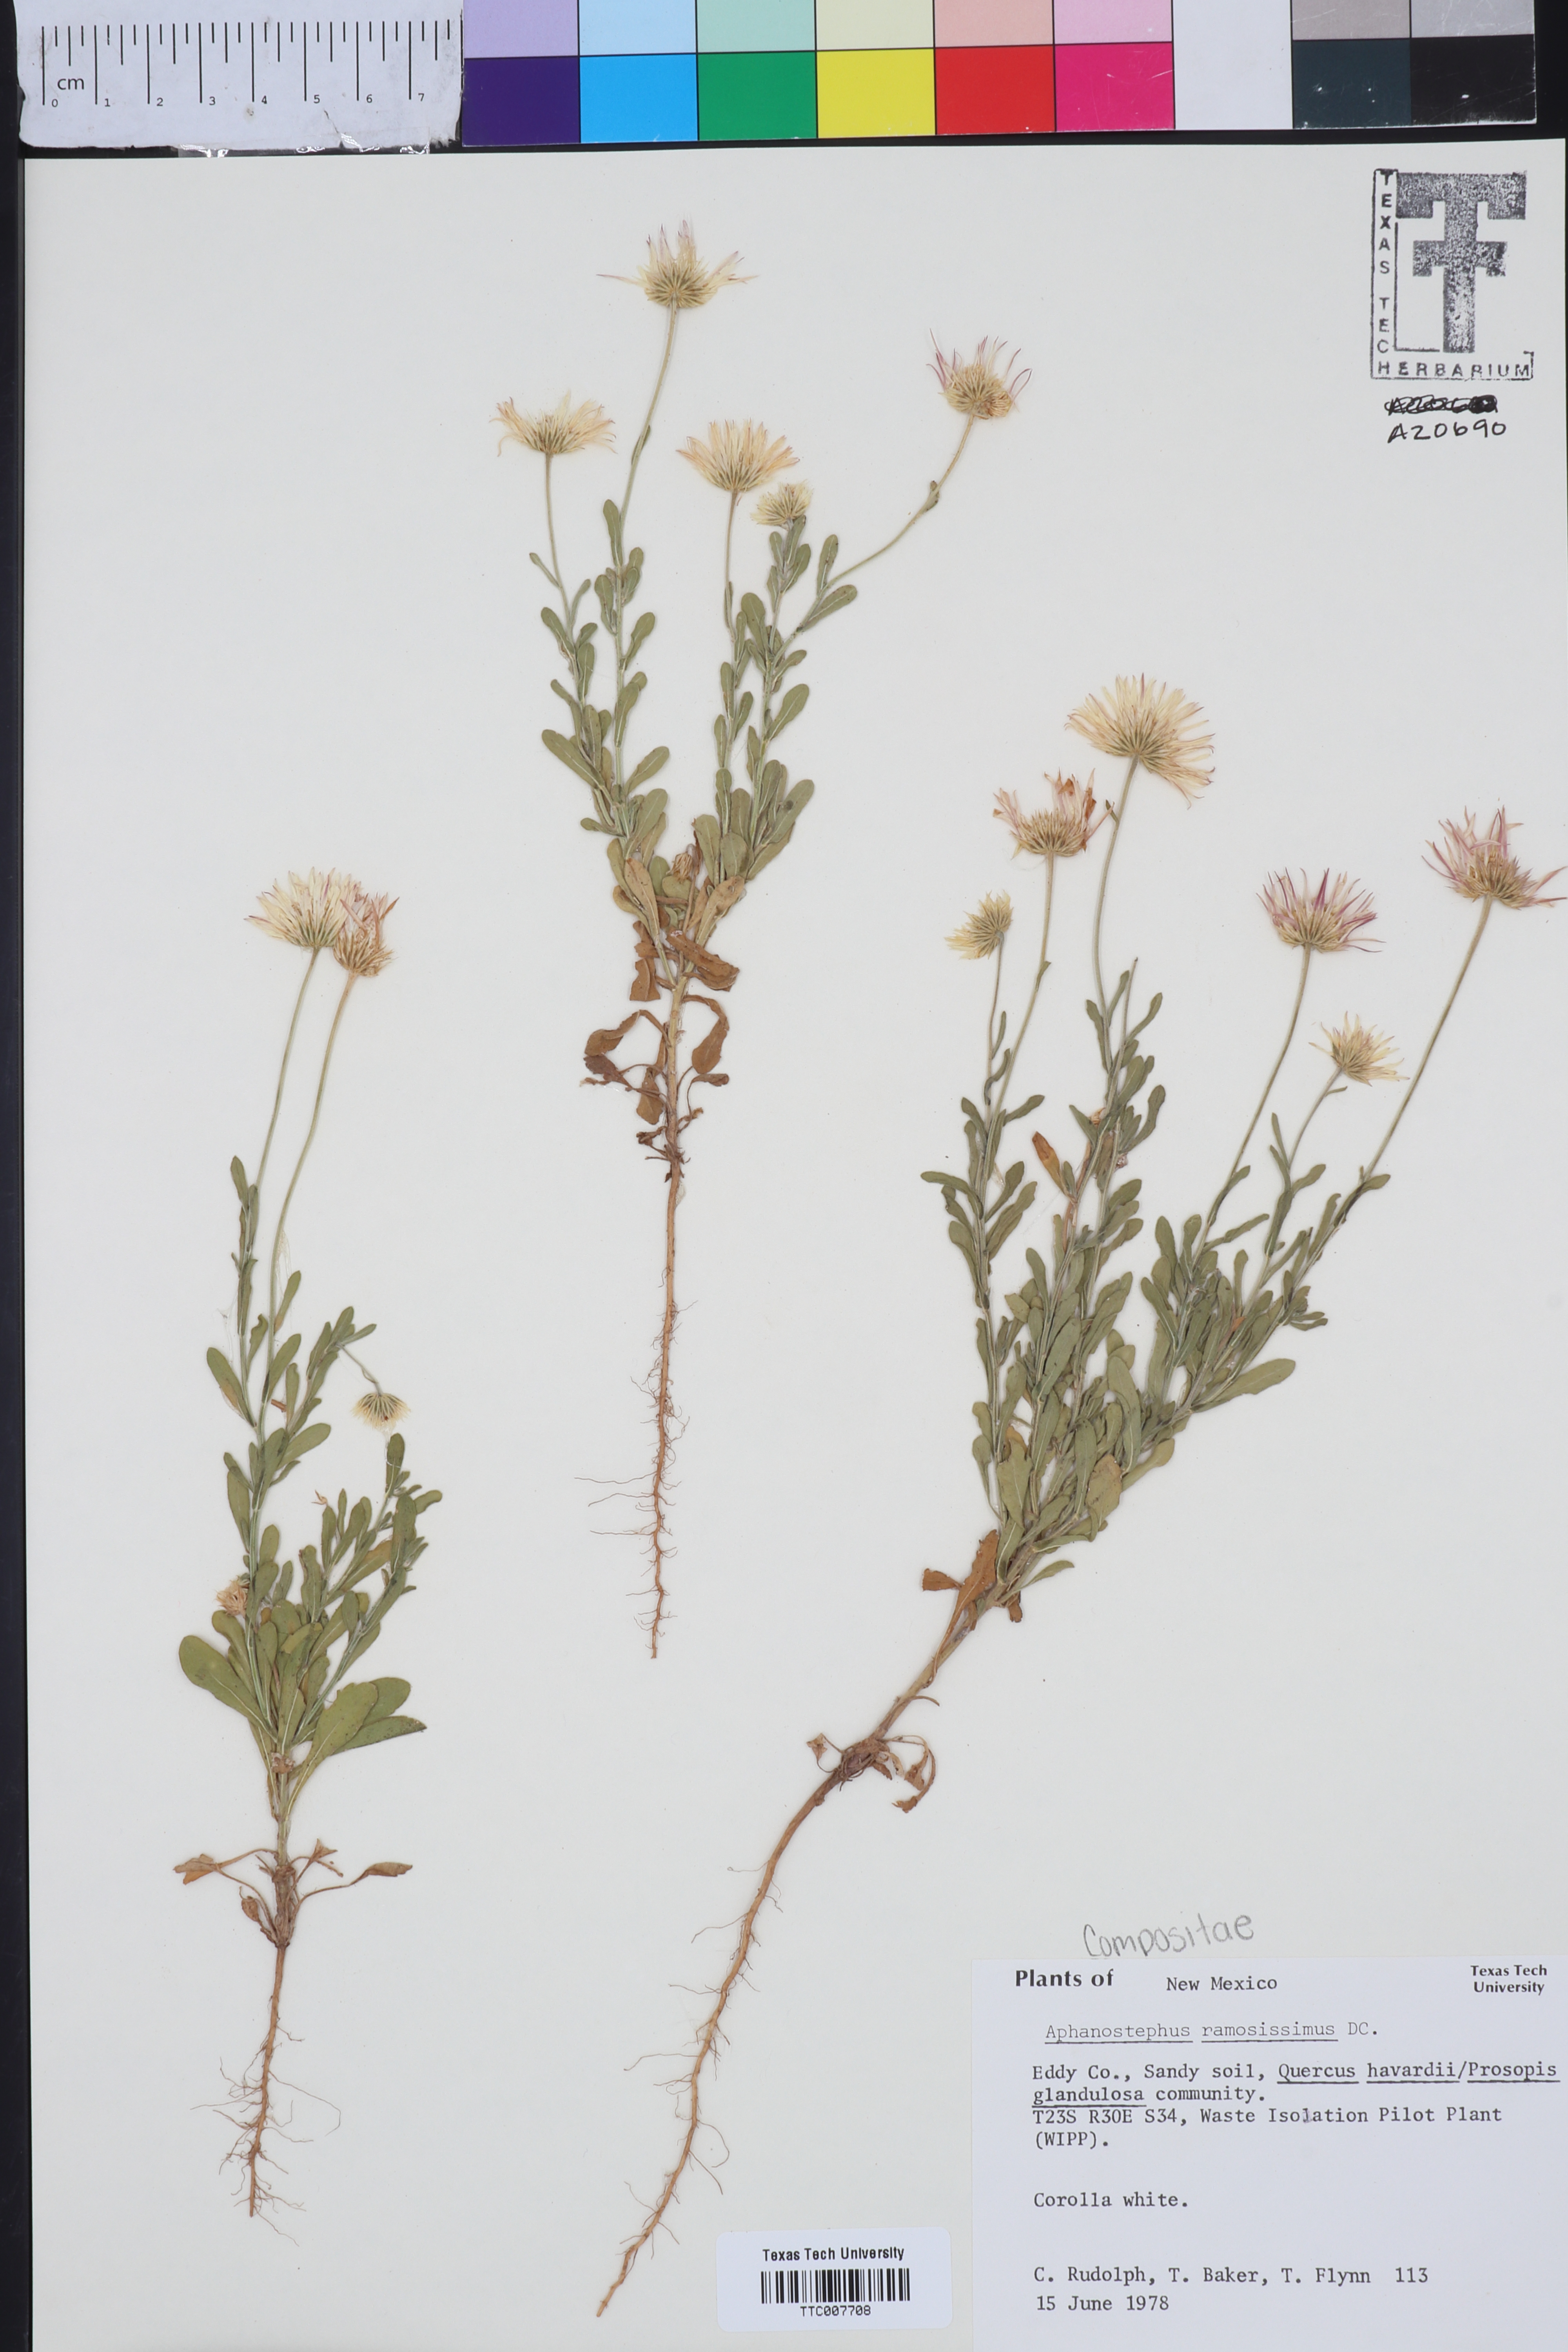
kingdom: Plantae
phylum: Tracheophyta
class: Magnoliopsida
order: Asterales
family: Asteraceae
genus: Aphanostephus
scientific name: Aphanostephus ramosissimus
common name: Plains lazy daisy
